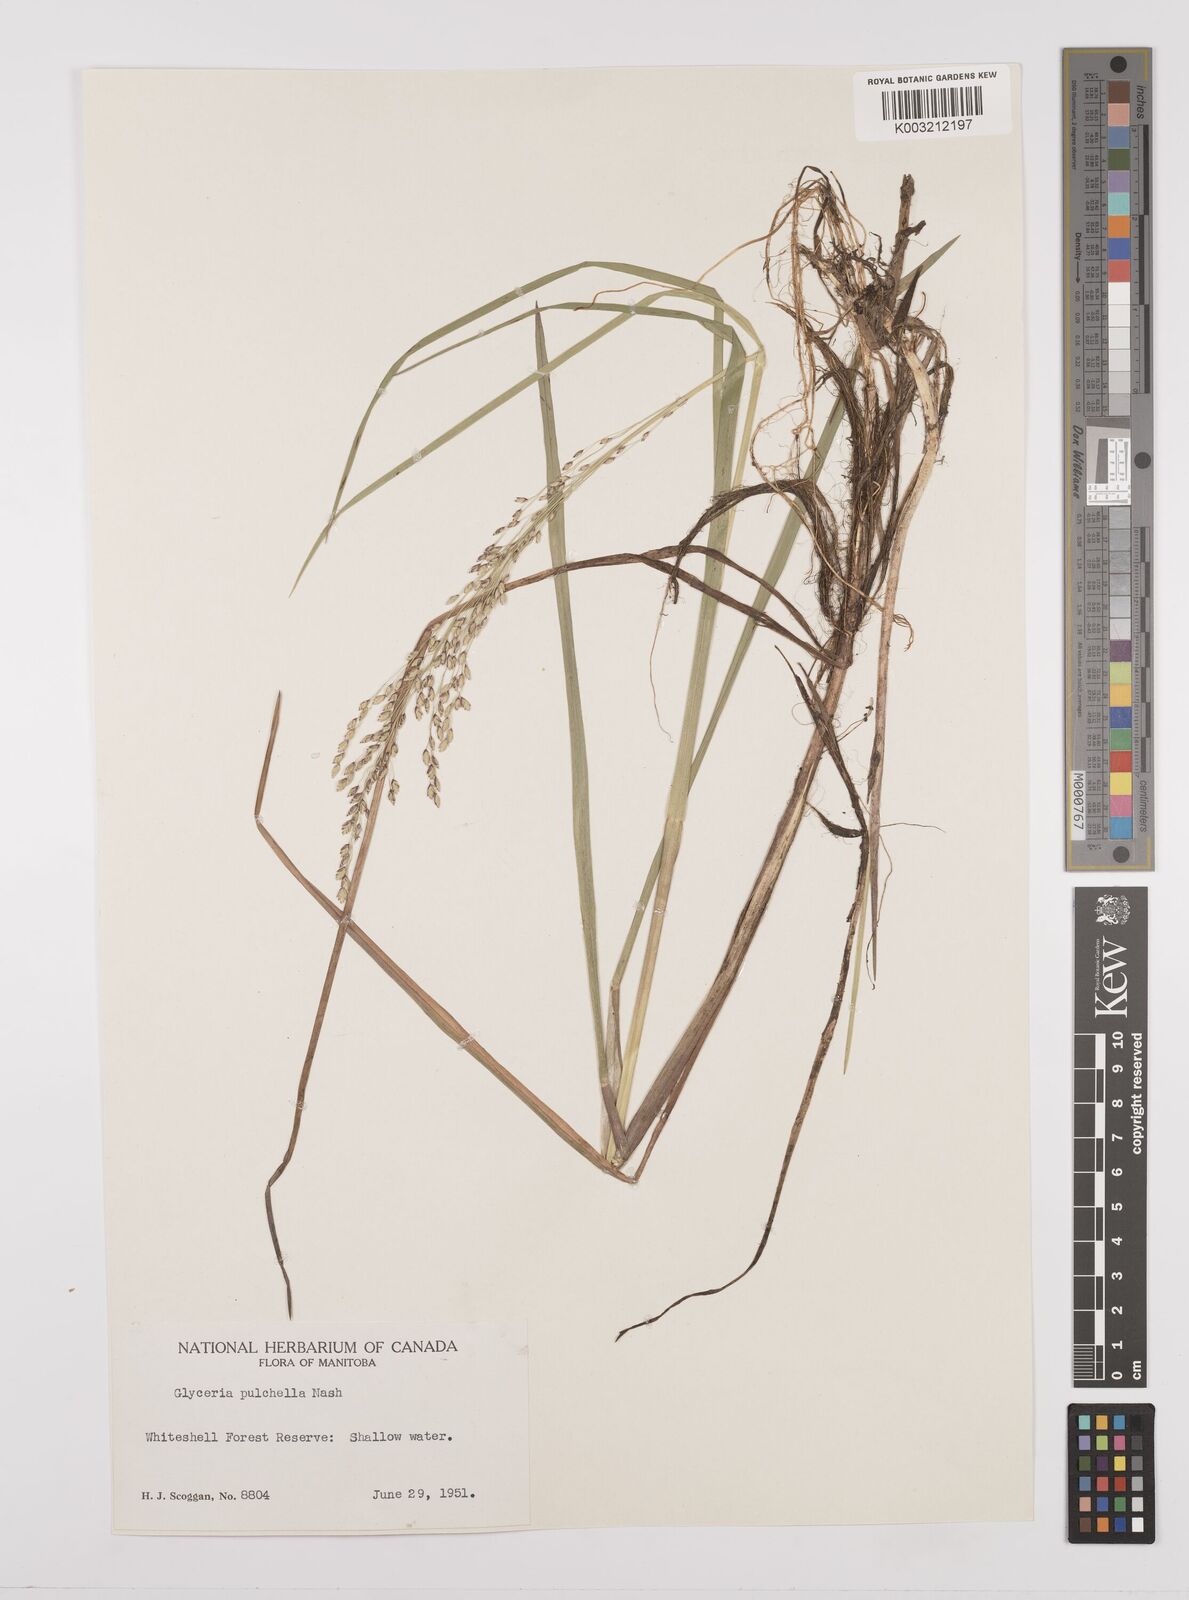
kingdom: Plantae
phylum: Tracheophyta
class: Liliopsida
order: Poales
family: Poaceae
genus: Glyceria
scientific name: Glyceria pulchella
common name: Mackenzie valley mannagrass
